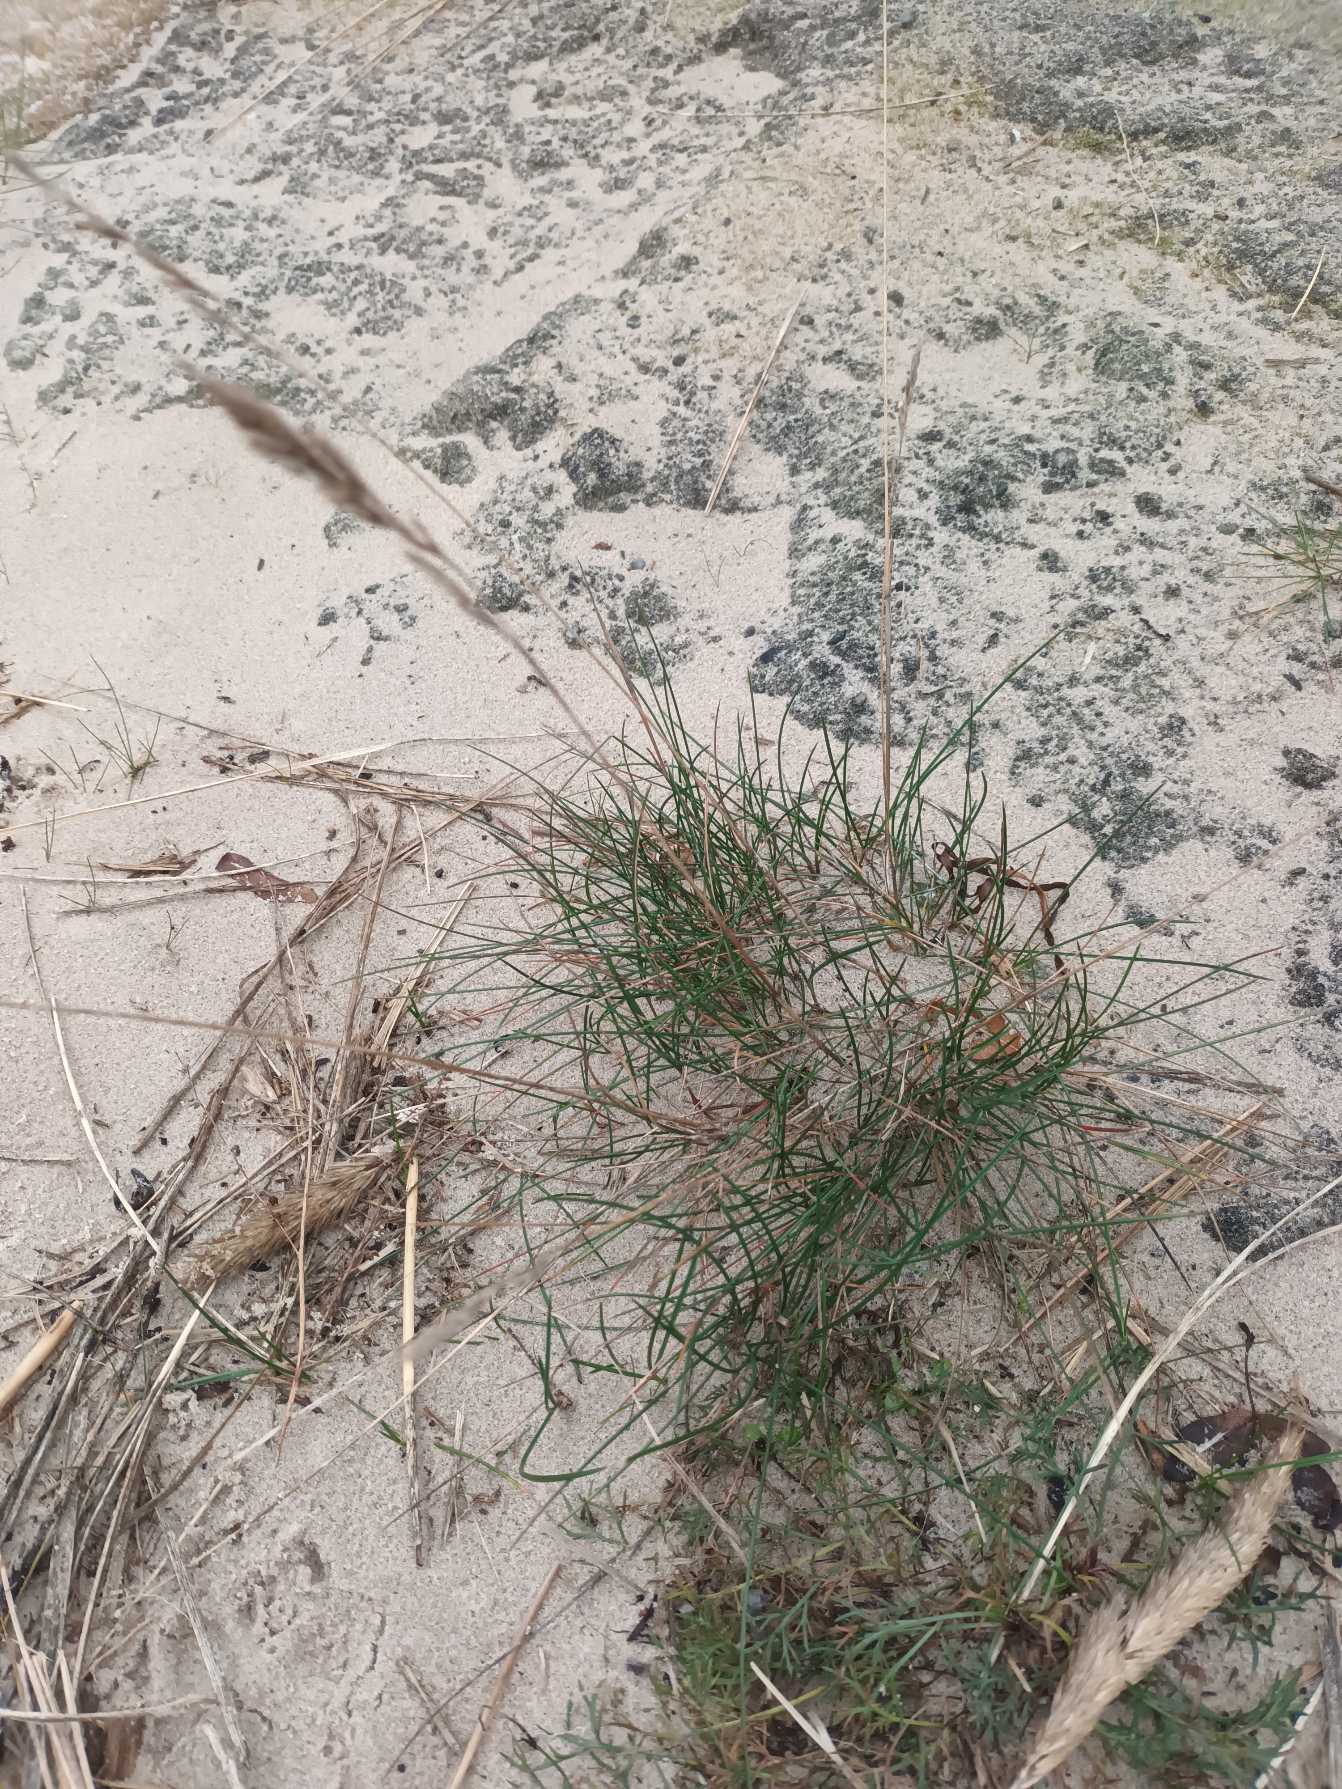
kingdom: Plantae
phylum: Tracheophyta
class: Liliopsida
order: Poales
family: Poaceae
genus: Festuca
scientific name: Festuca rubra
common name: Rød svingel
